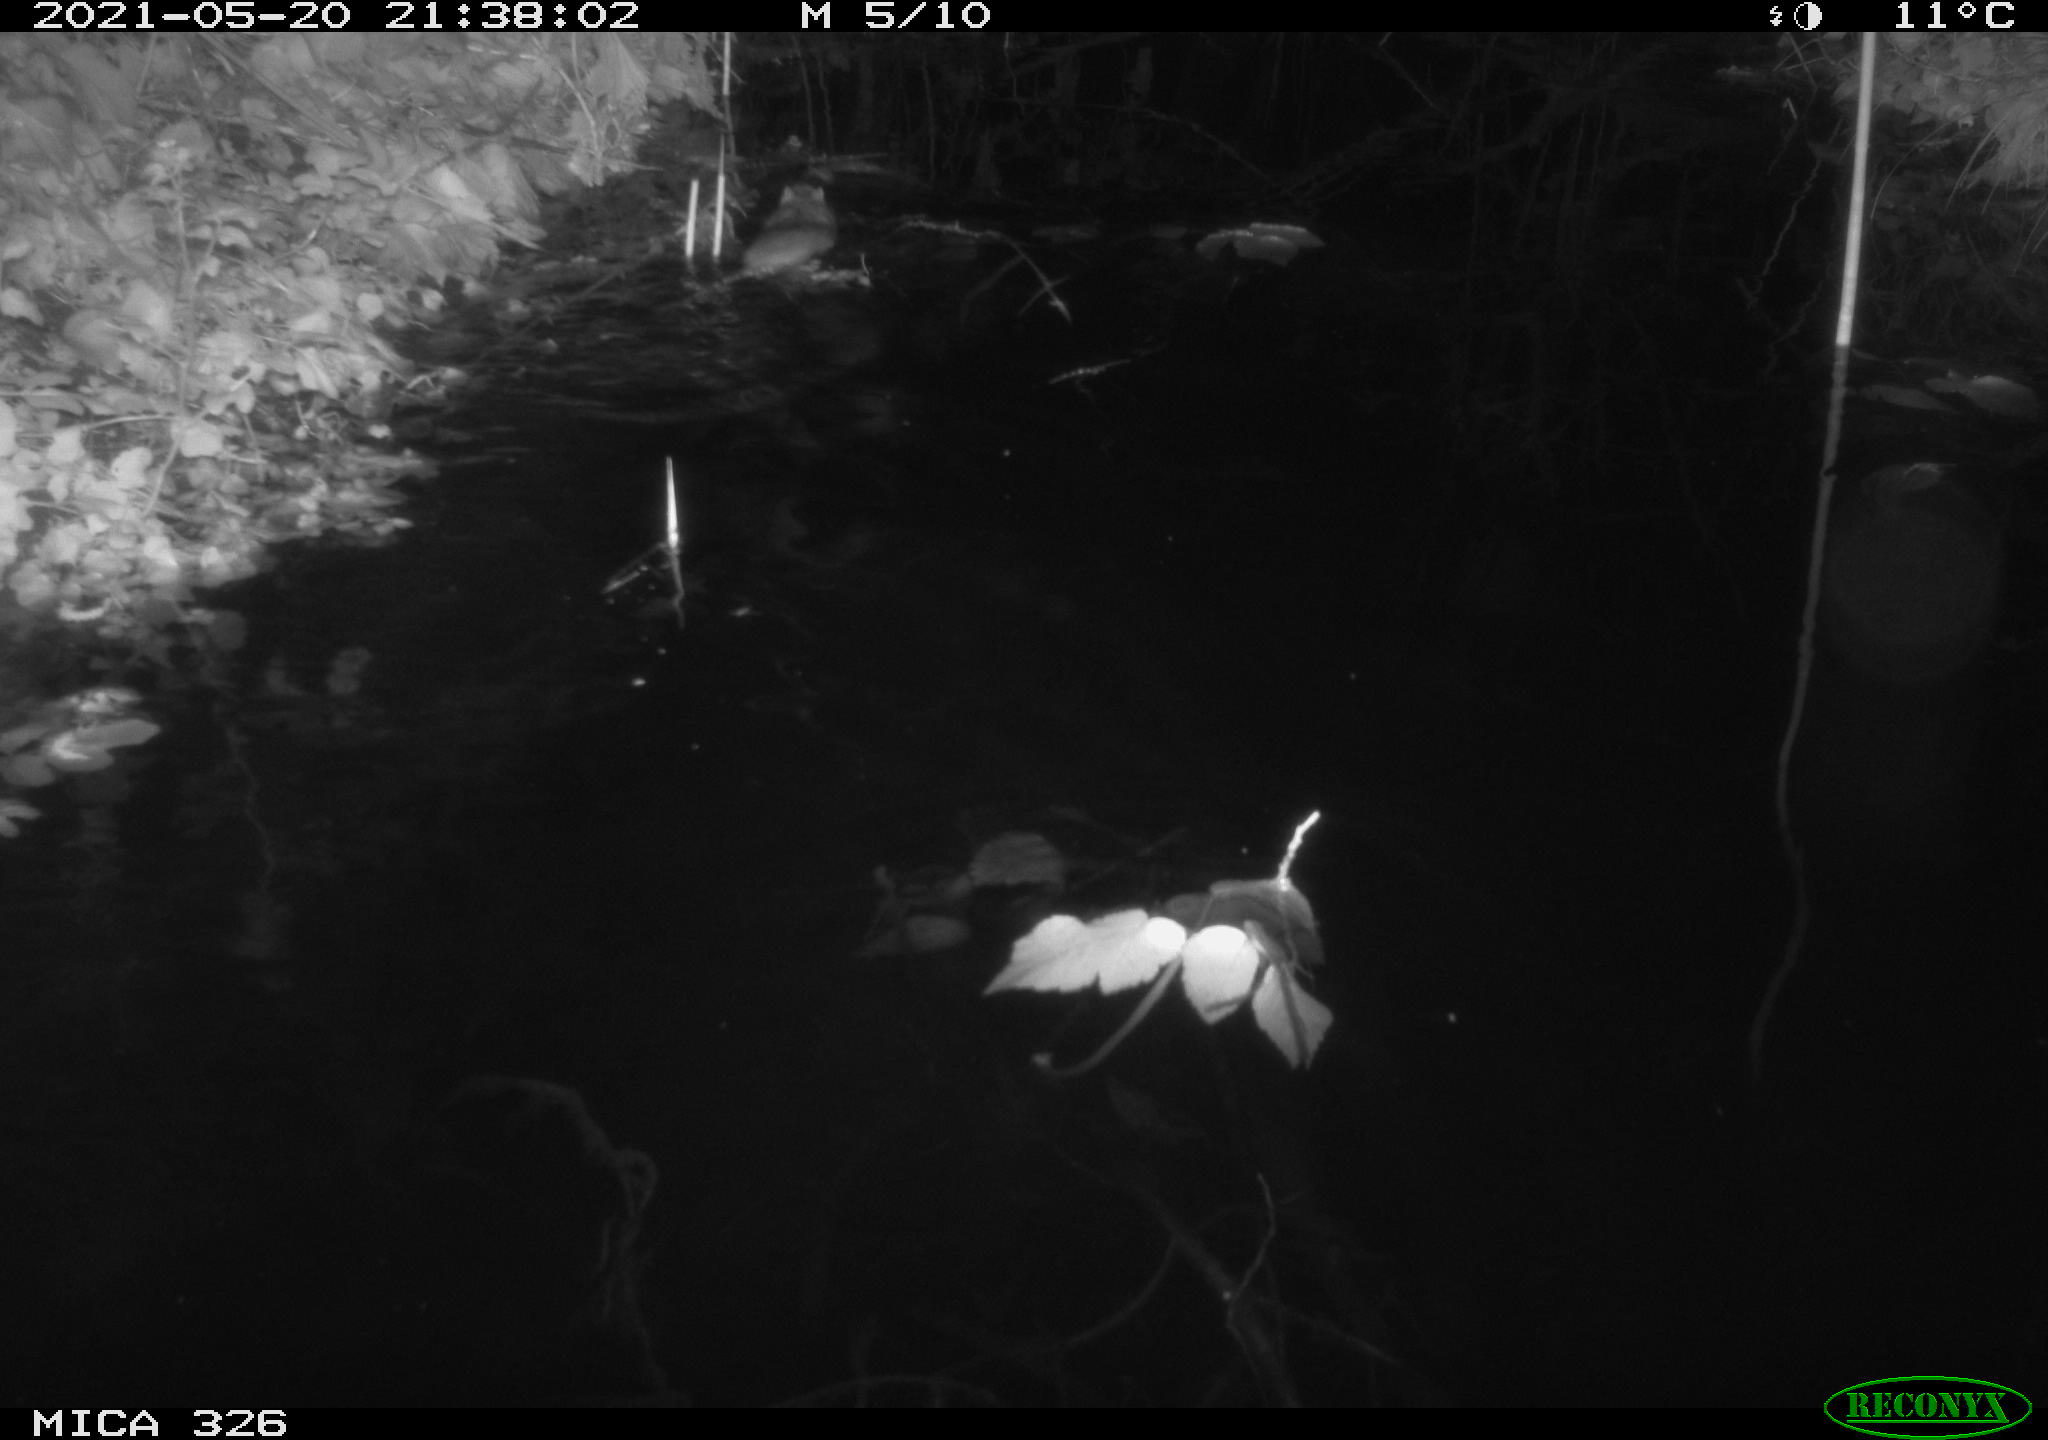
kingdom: Animalia
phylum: Chordata
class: Mammalia
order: Rodentia
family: Muridae
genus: Rattus
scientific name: Rattus norvegicus
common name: Brown rat
